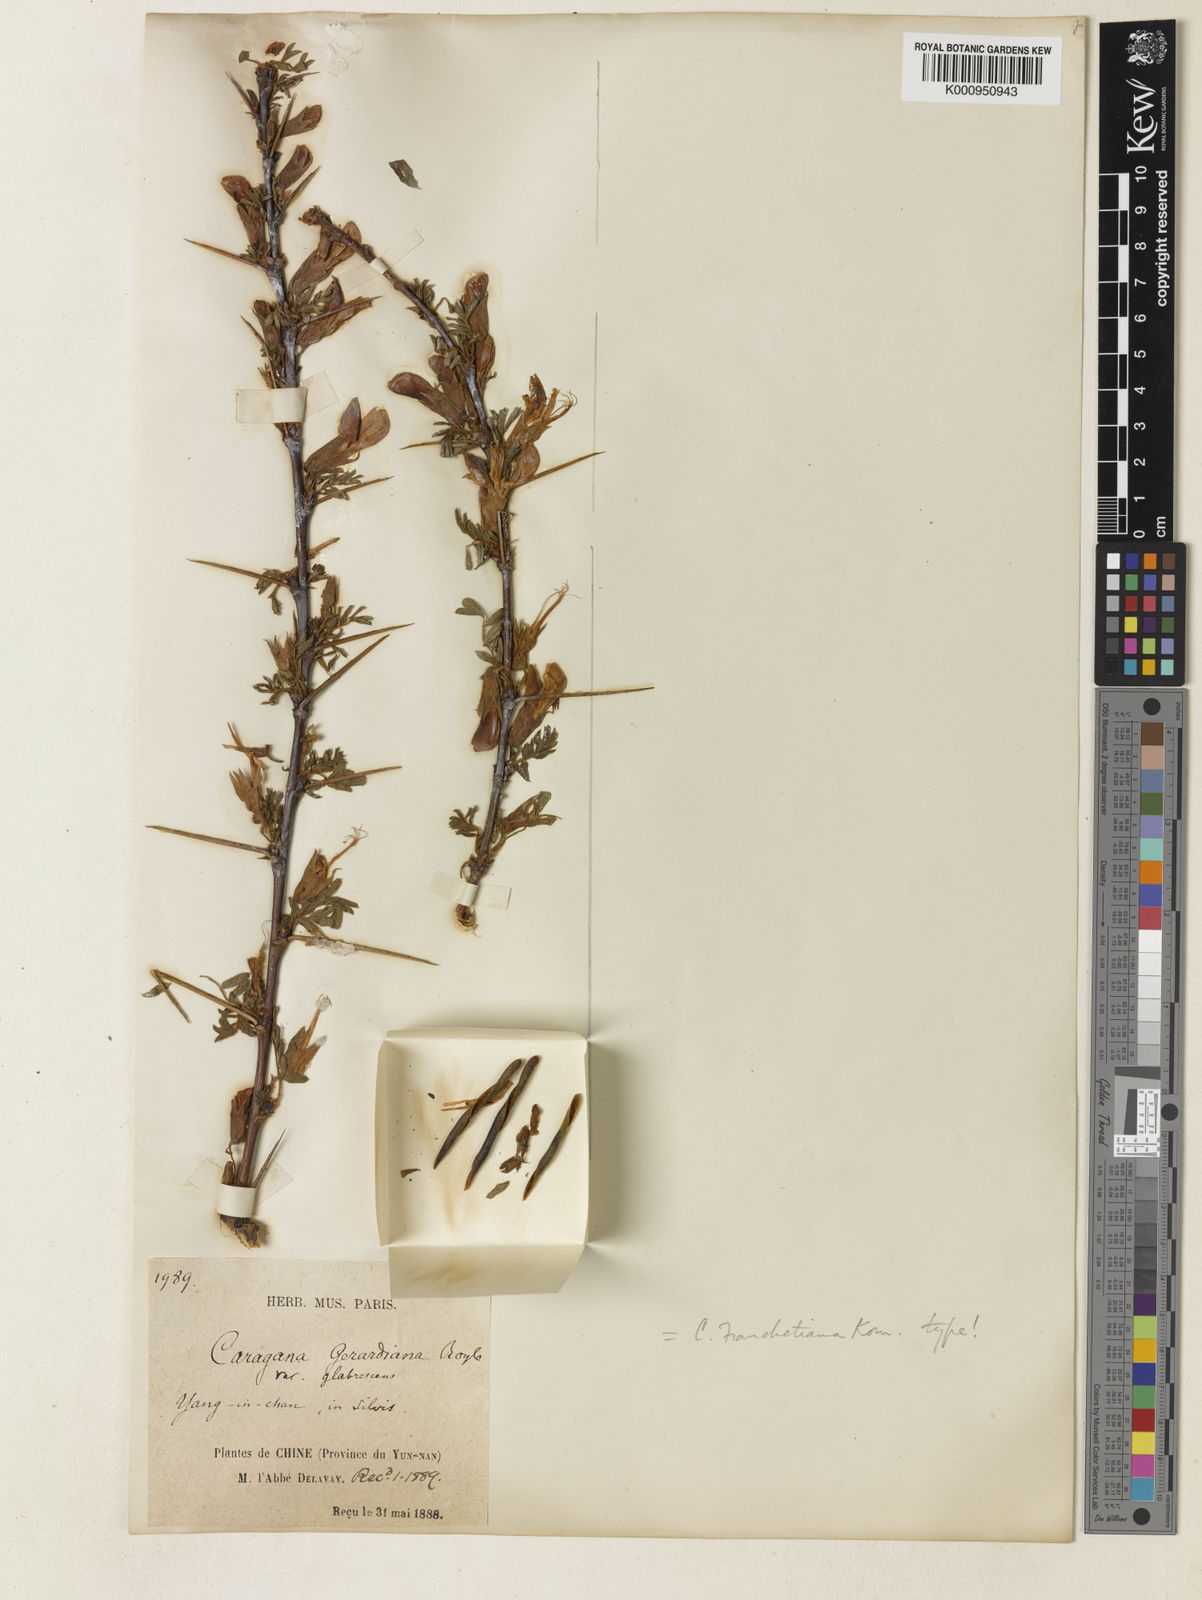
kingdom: Plantae
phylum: Tracheophyta
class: Magnoliopsida
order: Fabales
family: Fabaceae
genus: Caragana
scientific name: Caragana franchetiana
